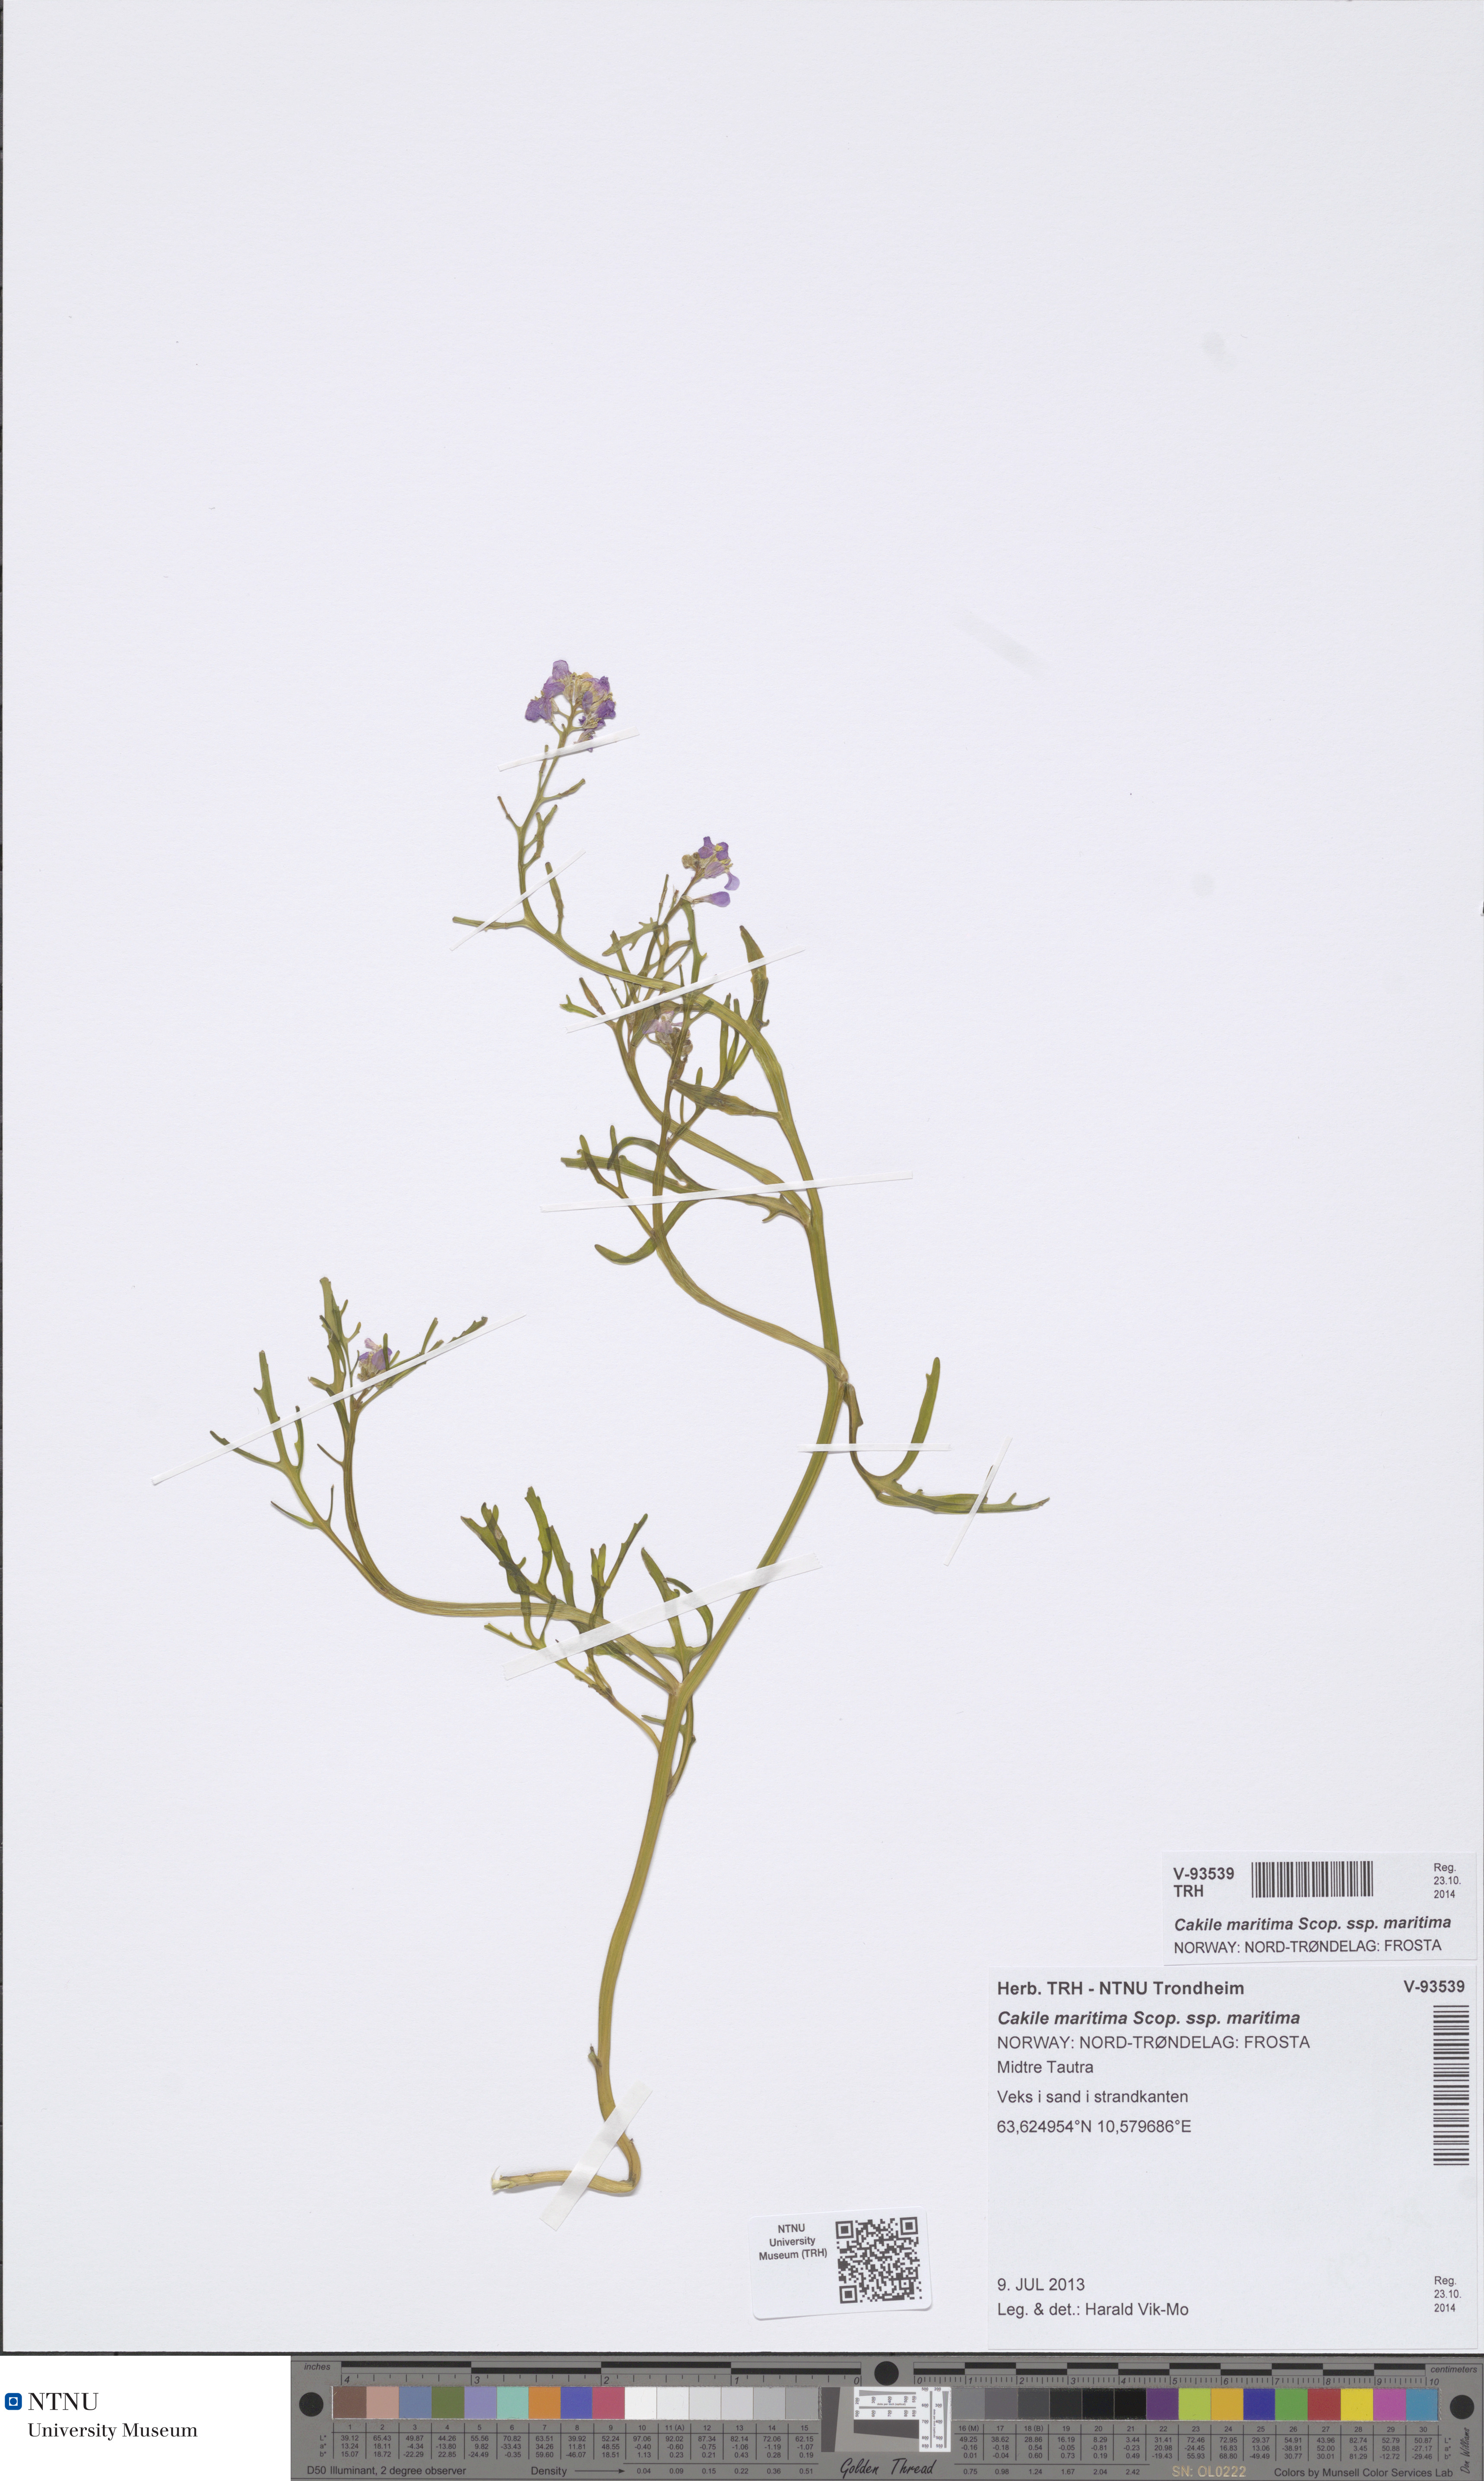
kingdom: Plantae
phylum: Tracheophyta
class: Magnoliopsida
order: Brassicales
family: Brassicaceae
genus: Cakile
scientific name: Cakile maritima
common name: Sea rocket
